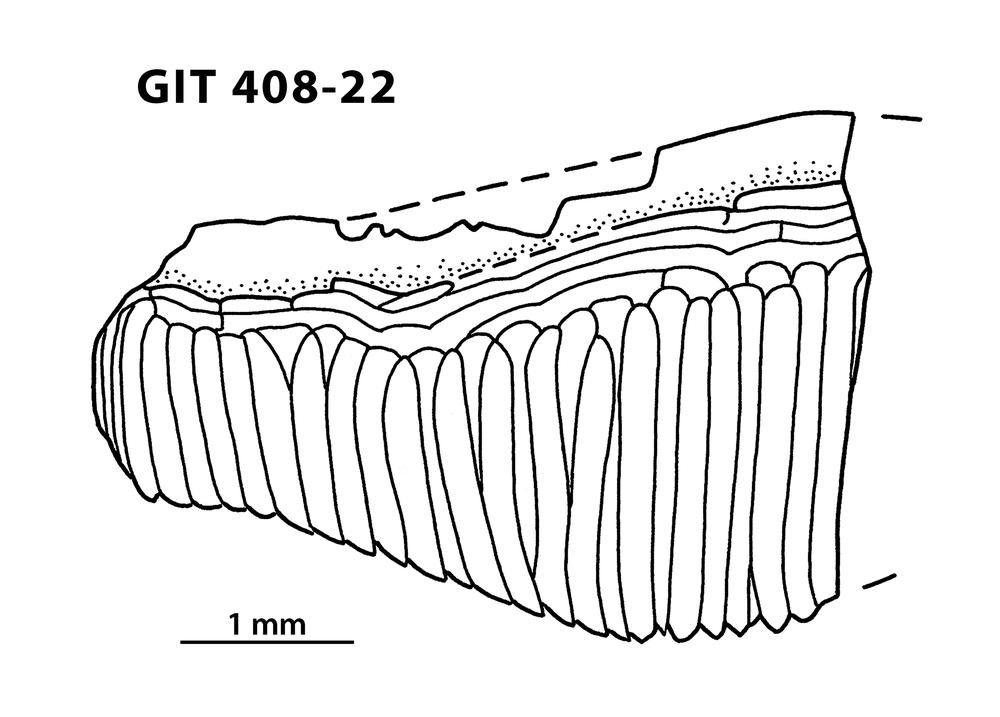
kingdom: Animalia
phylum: Chordata
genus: Archegonaspis
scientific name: Archegonaspis
